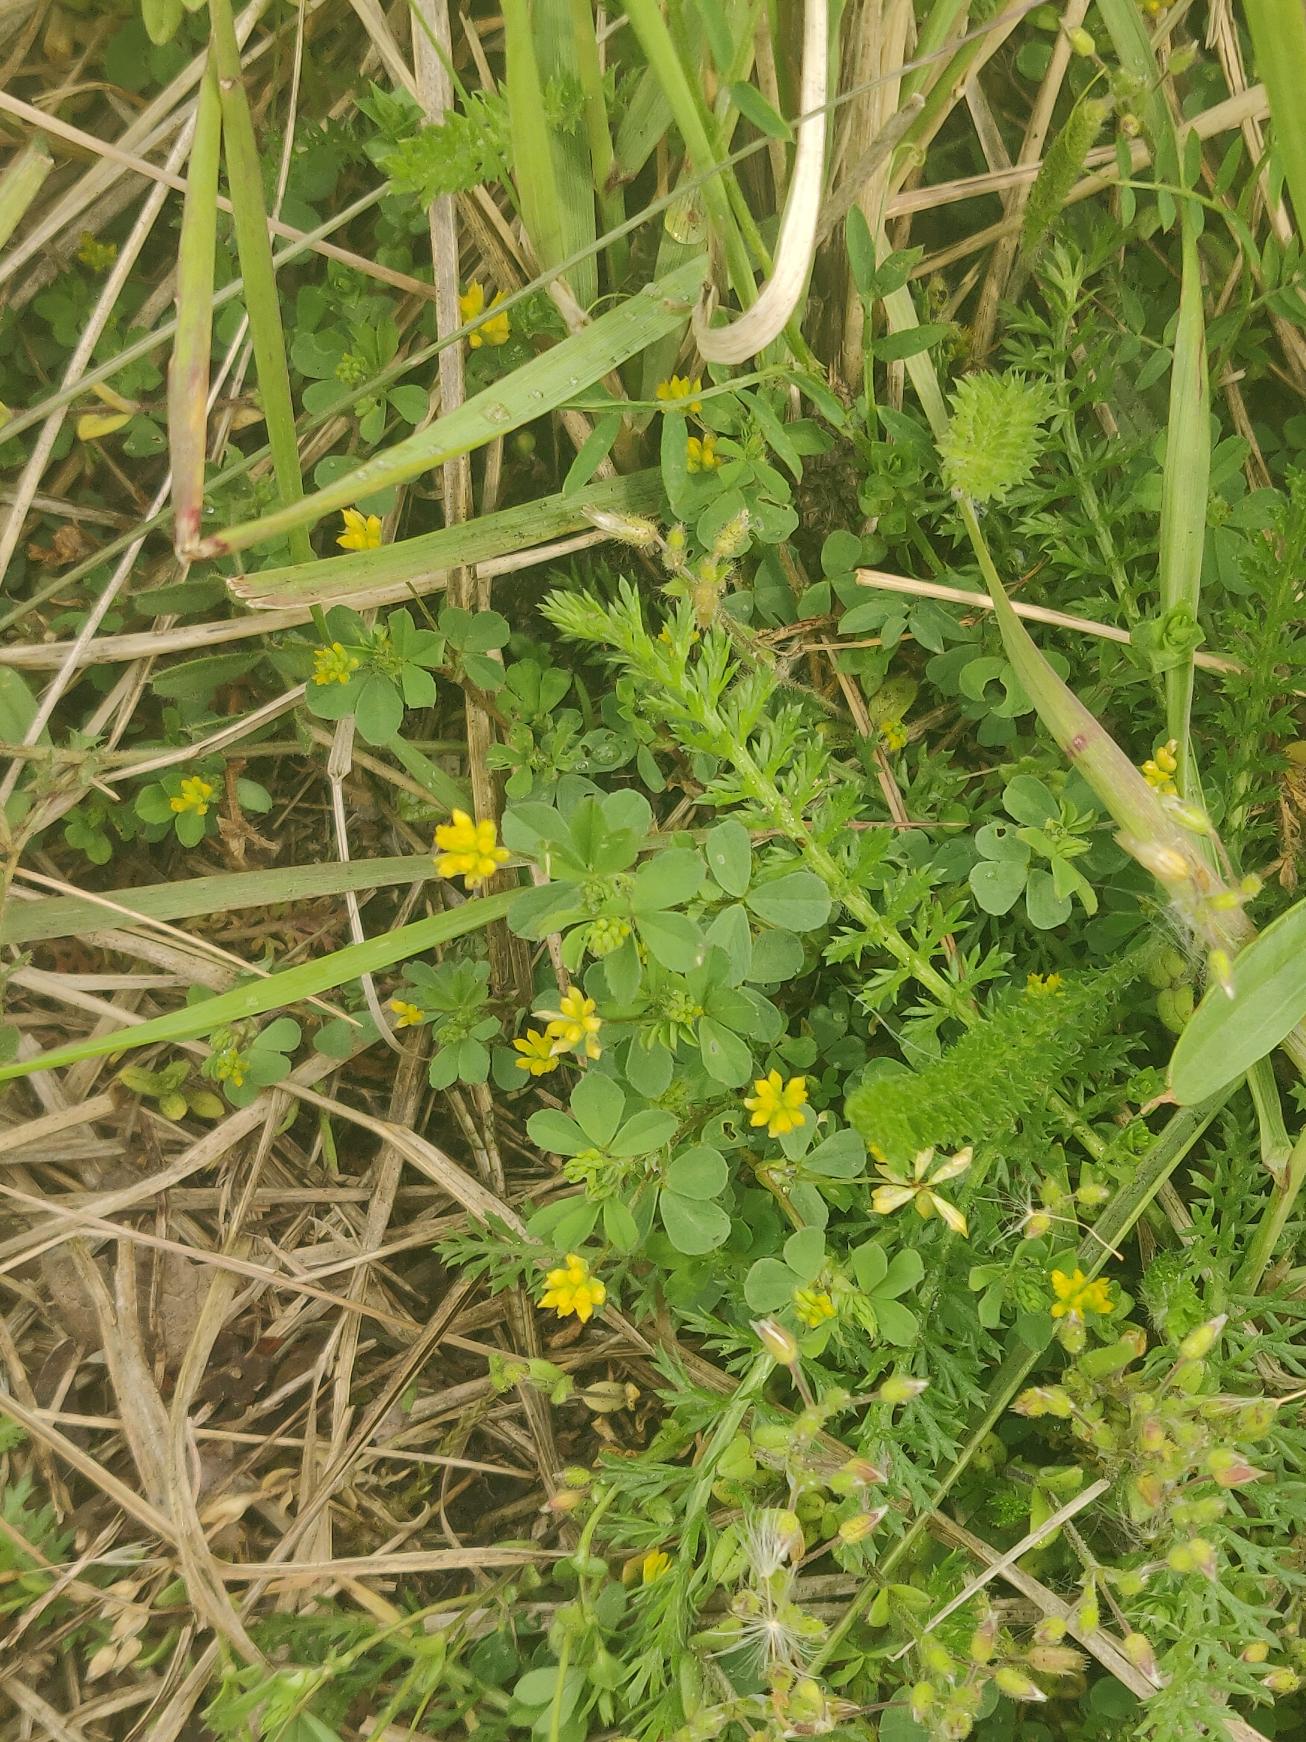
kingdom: Plantae
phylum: Tracheophyta
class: Magnoliopsida
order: Fabales
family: Fabaceae
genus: Trifolium
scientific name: Trifolium dubium
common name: Fin kløver
